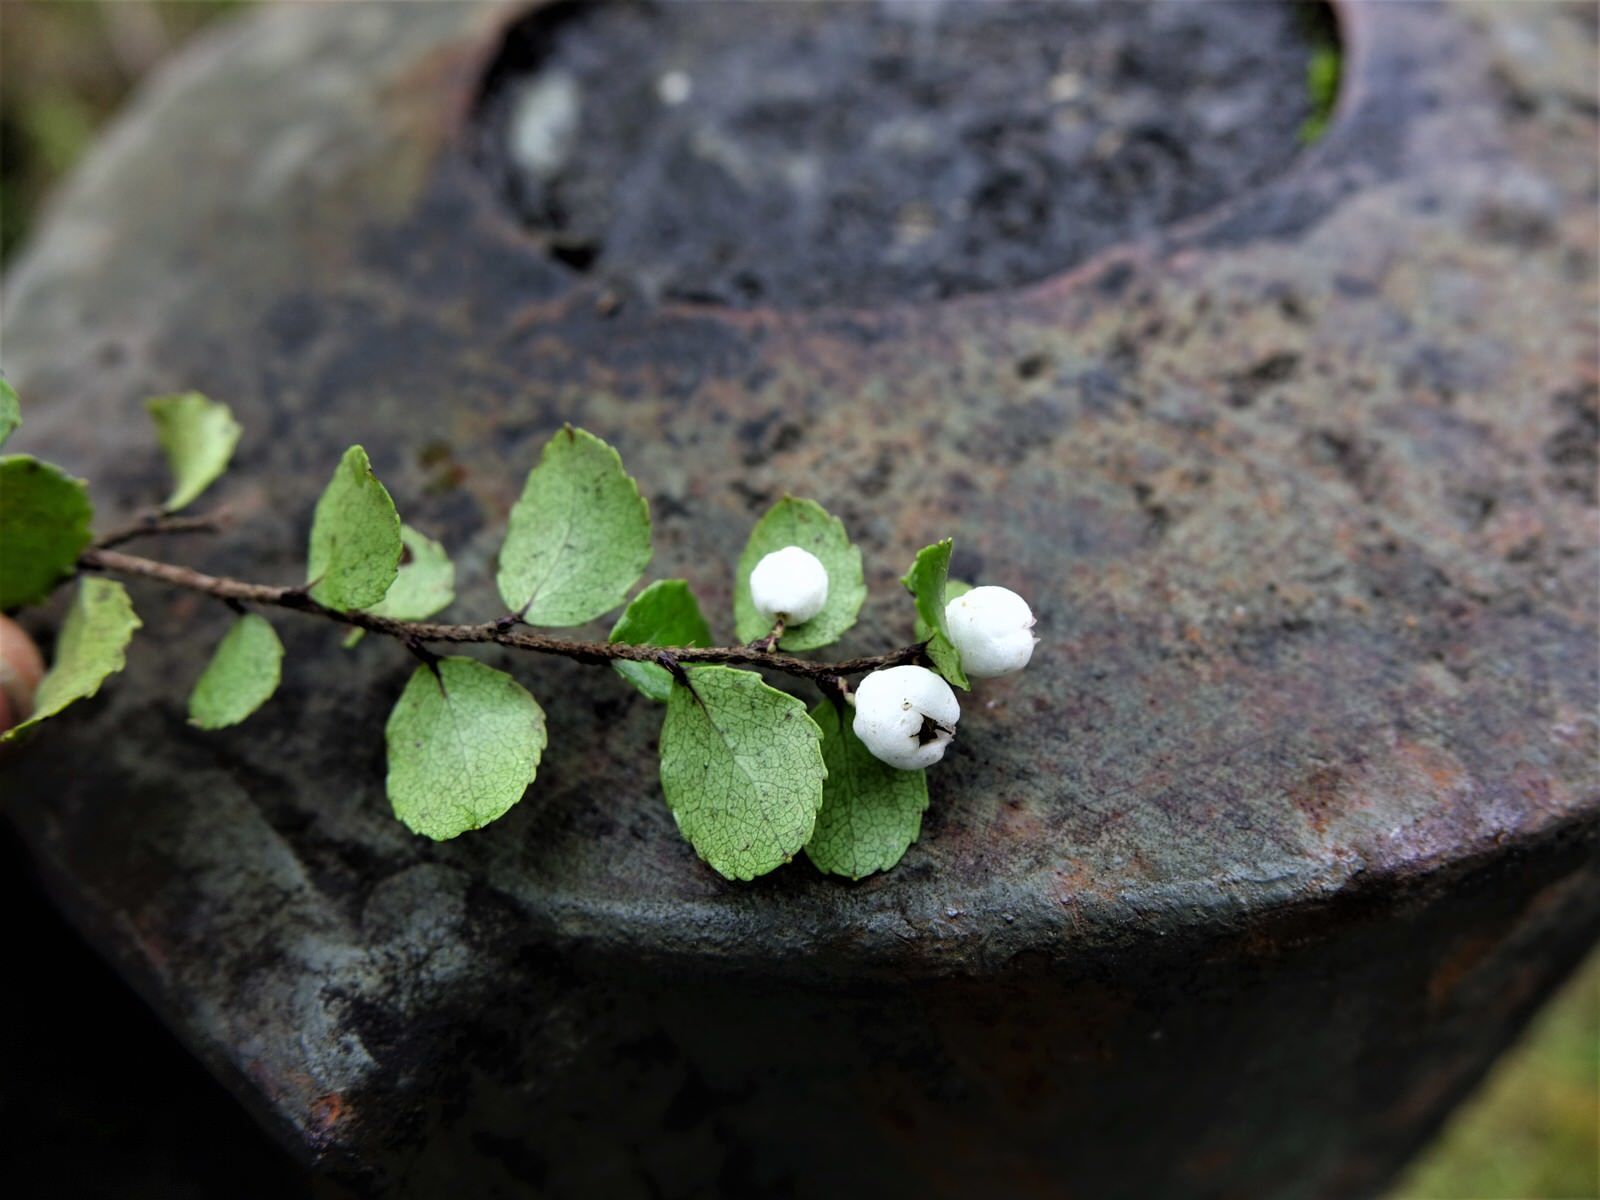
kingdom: Plantae
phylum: Tracheophyta
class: Magnoliopsida
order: Ericales
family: Ericaceae
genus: Gaultheria
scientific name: Gaultheria antipoda
